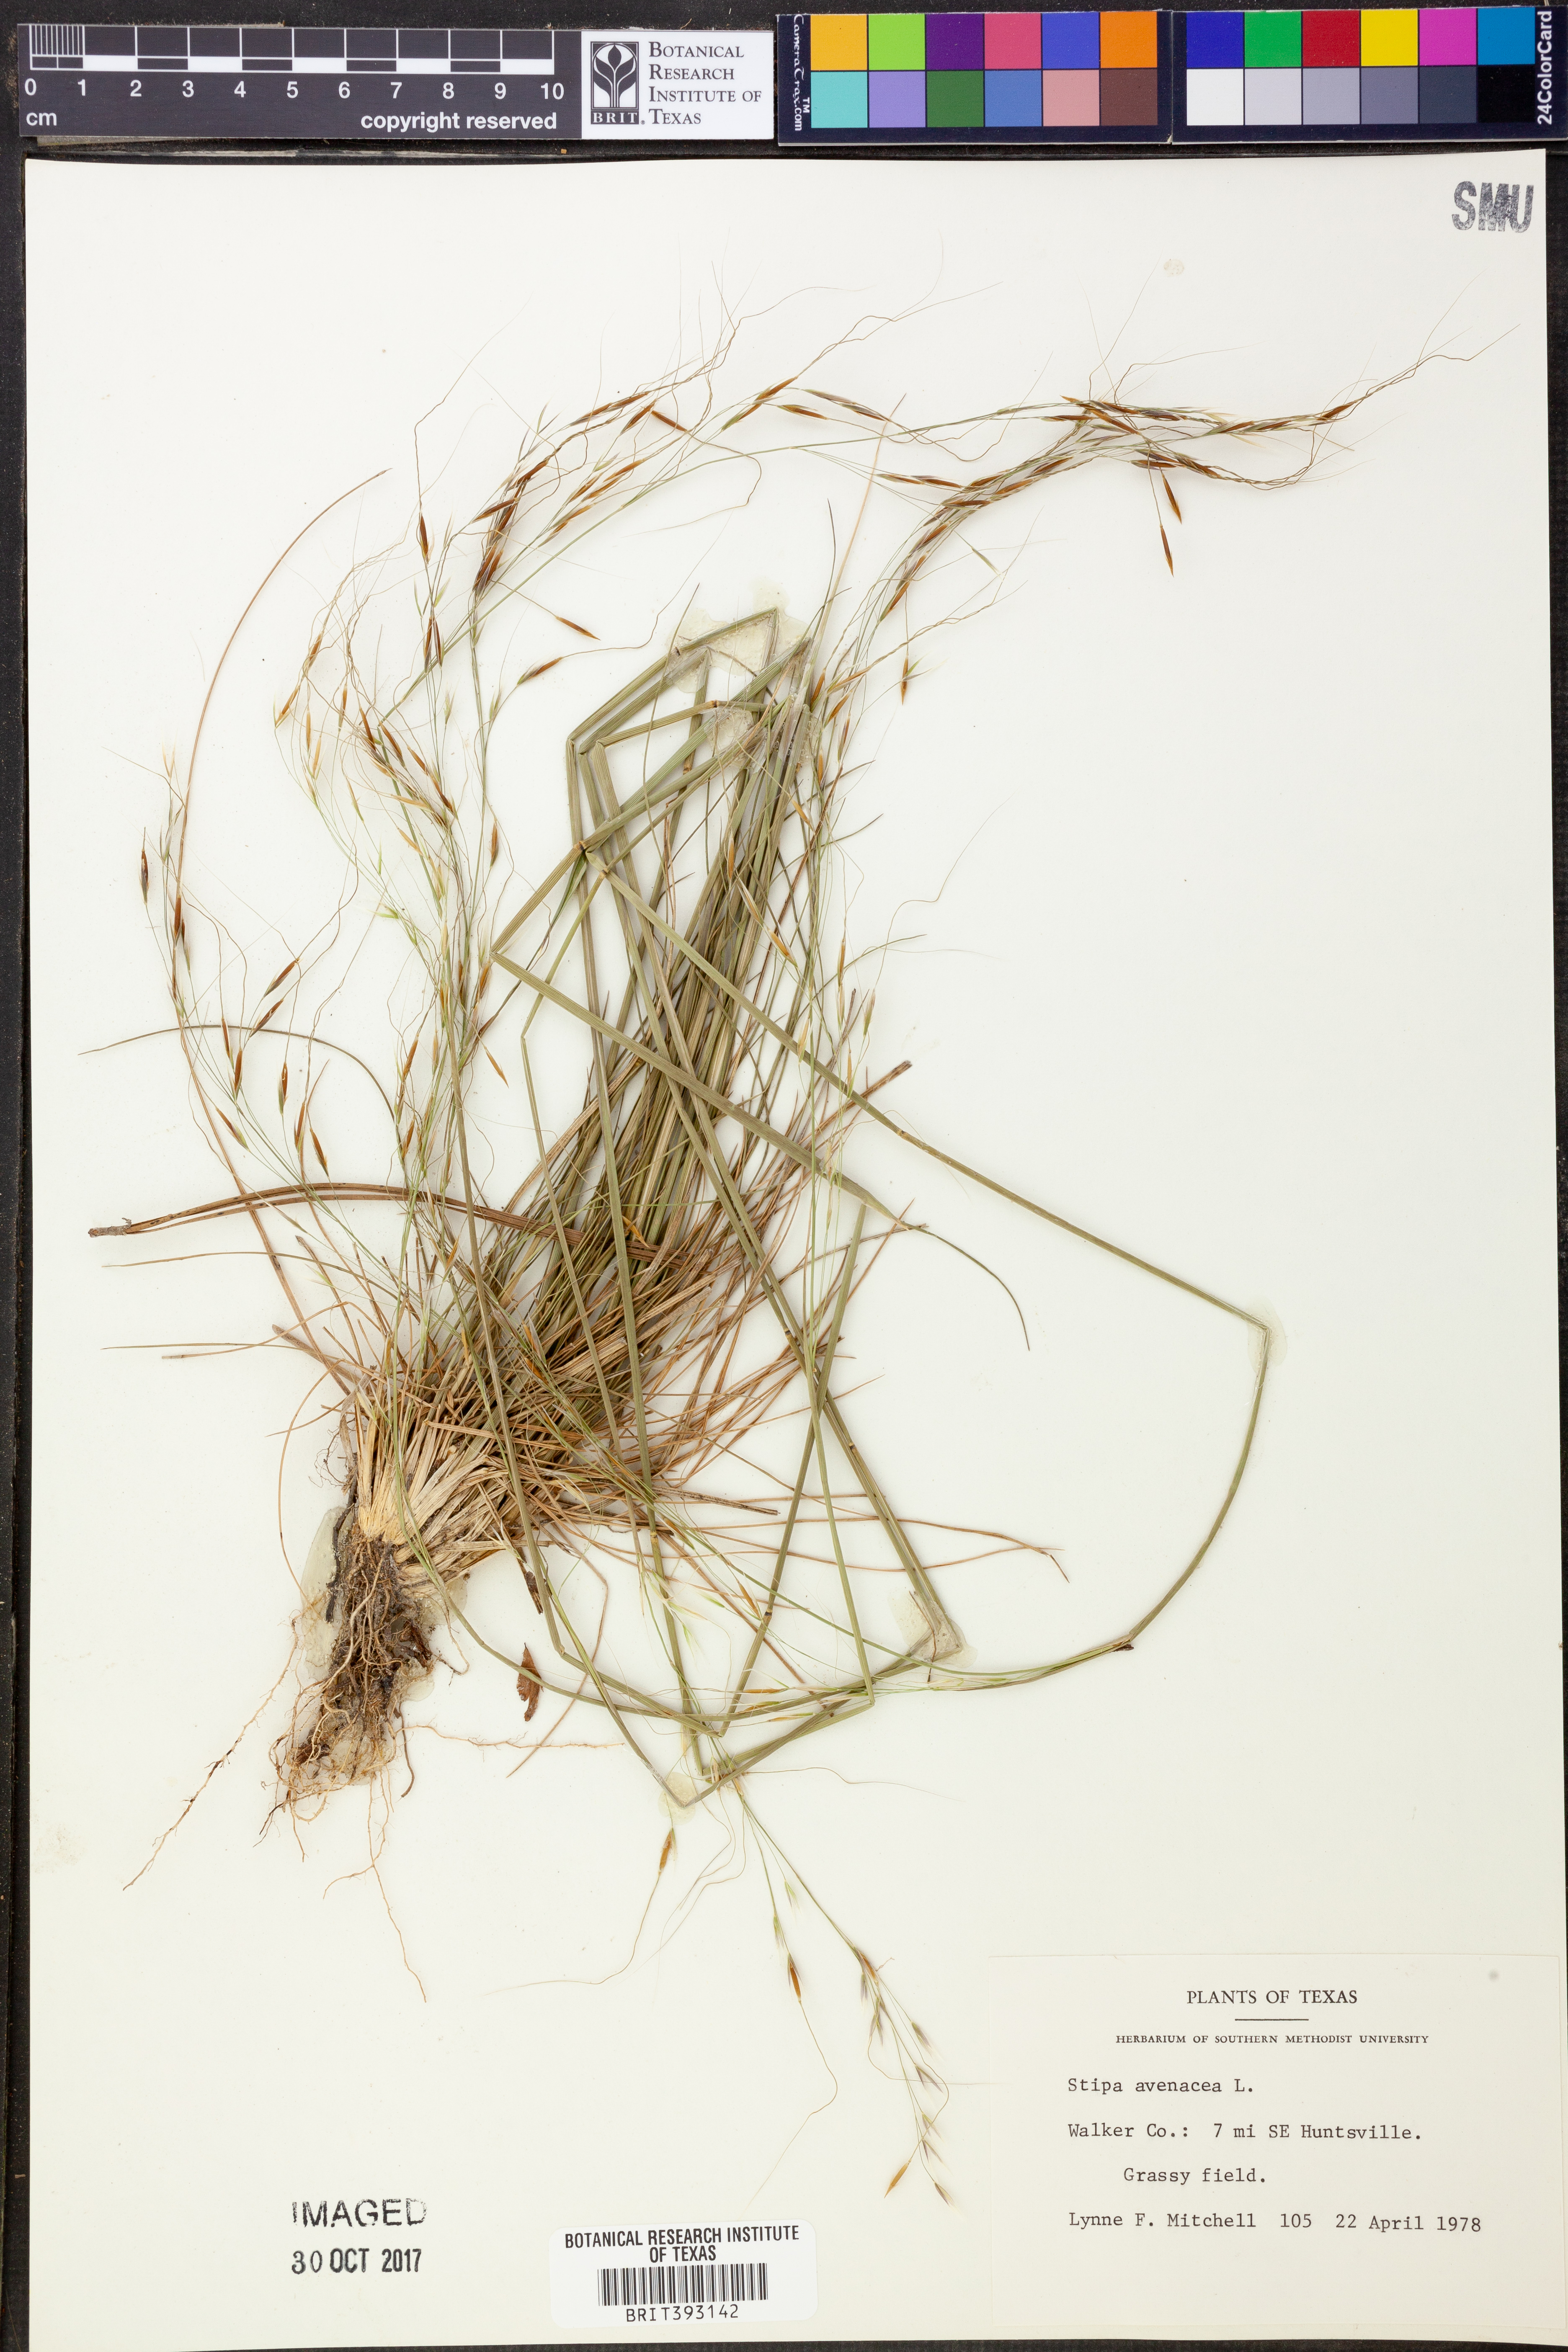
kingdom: Plantae
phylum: Tracheophyta
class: Liliopsida
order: Poales
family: Poaceae
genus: Piptochaetium
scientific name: Piptochaetium avenaceum
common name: Black bunchgrass
